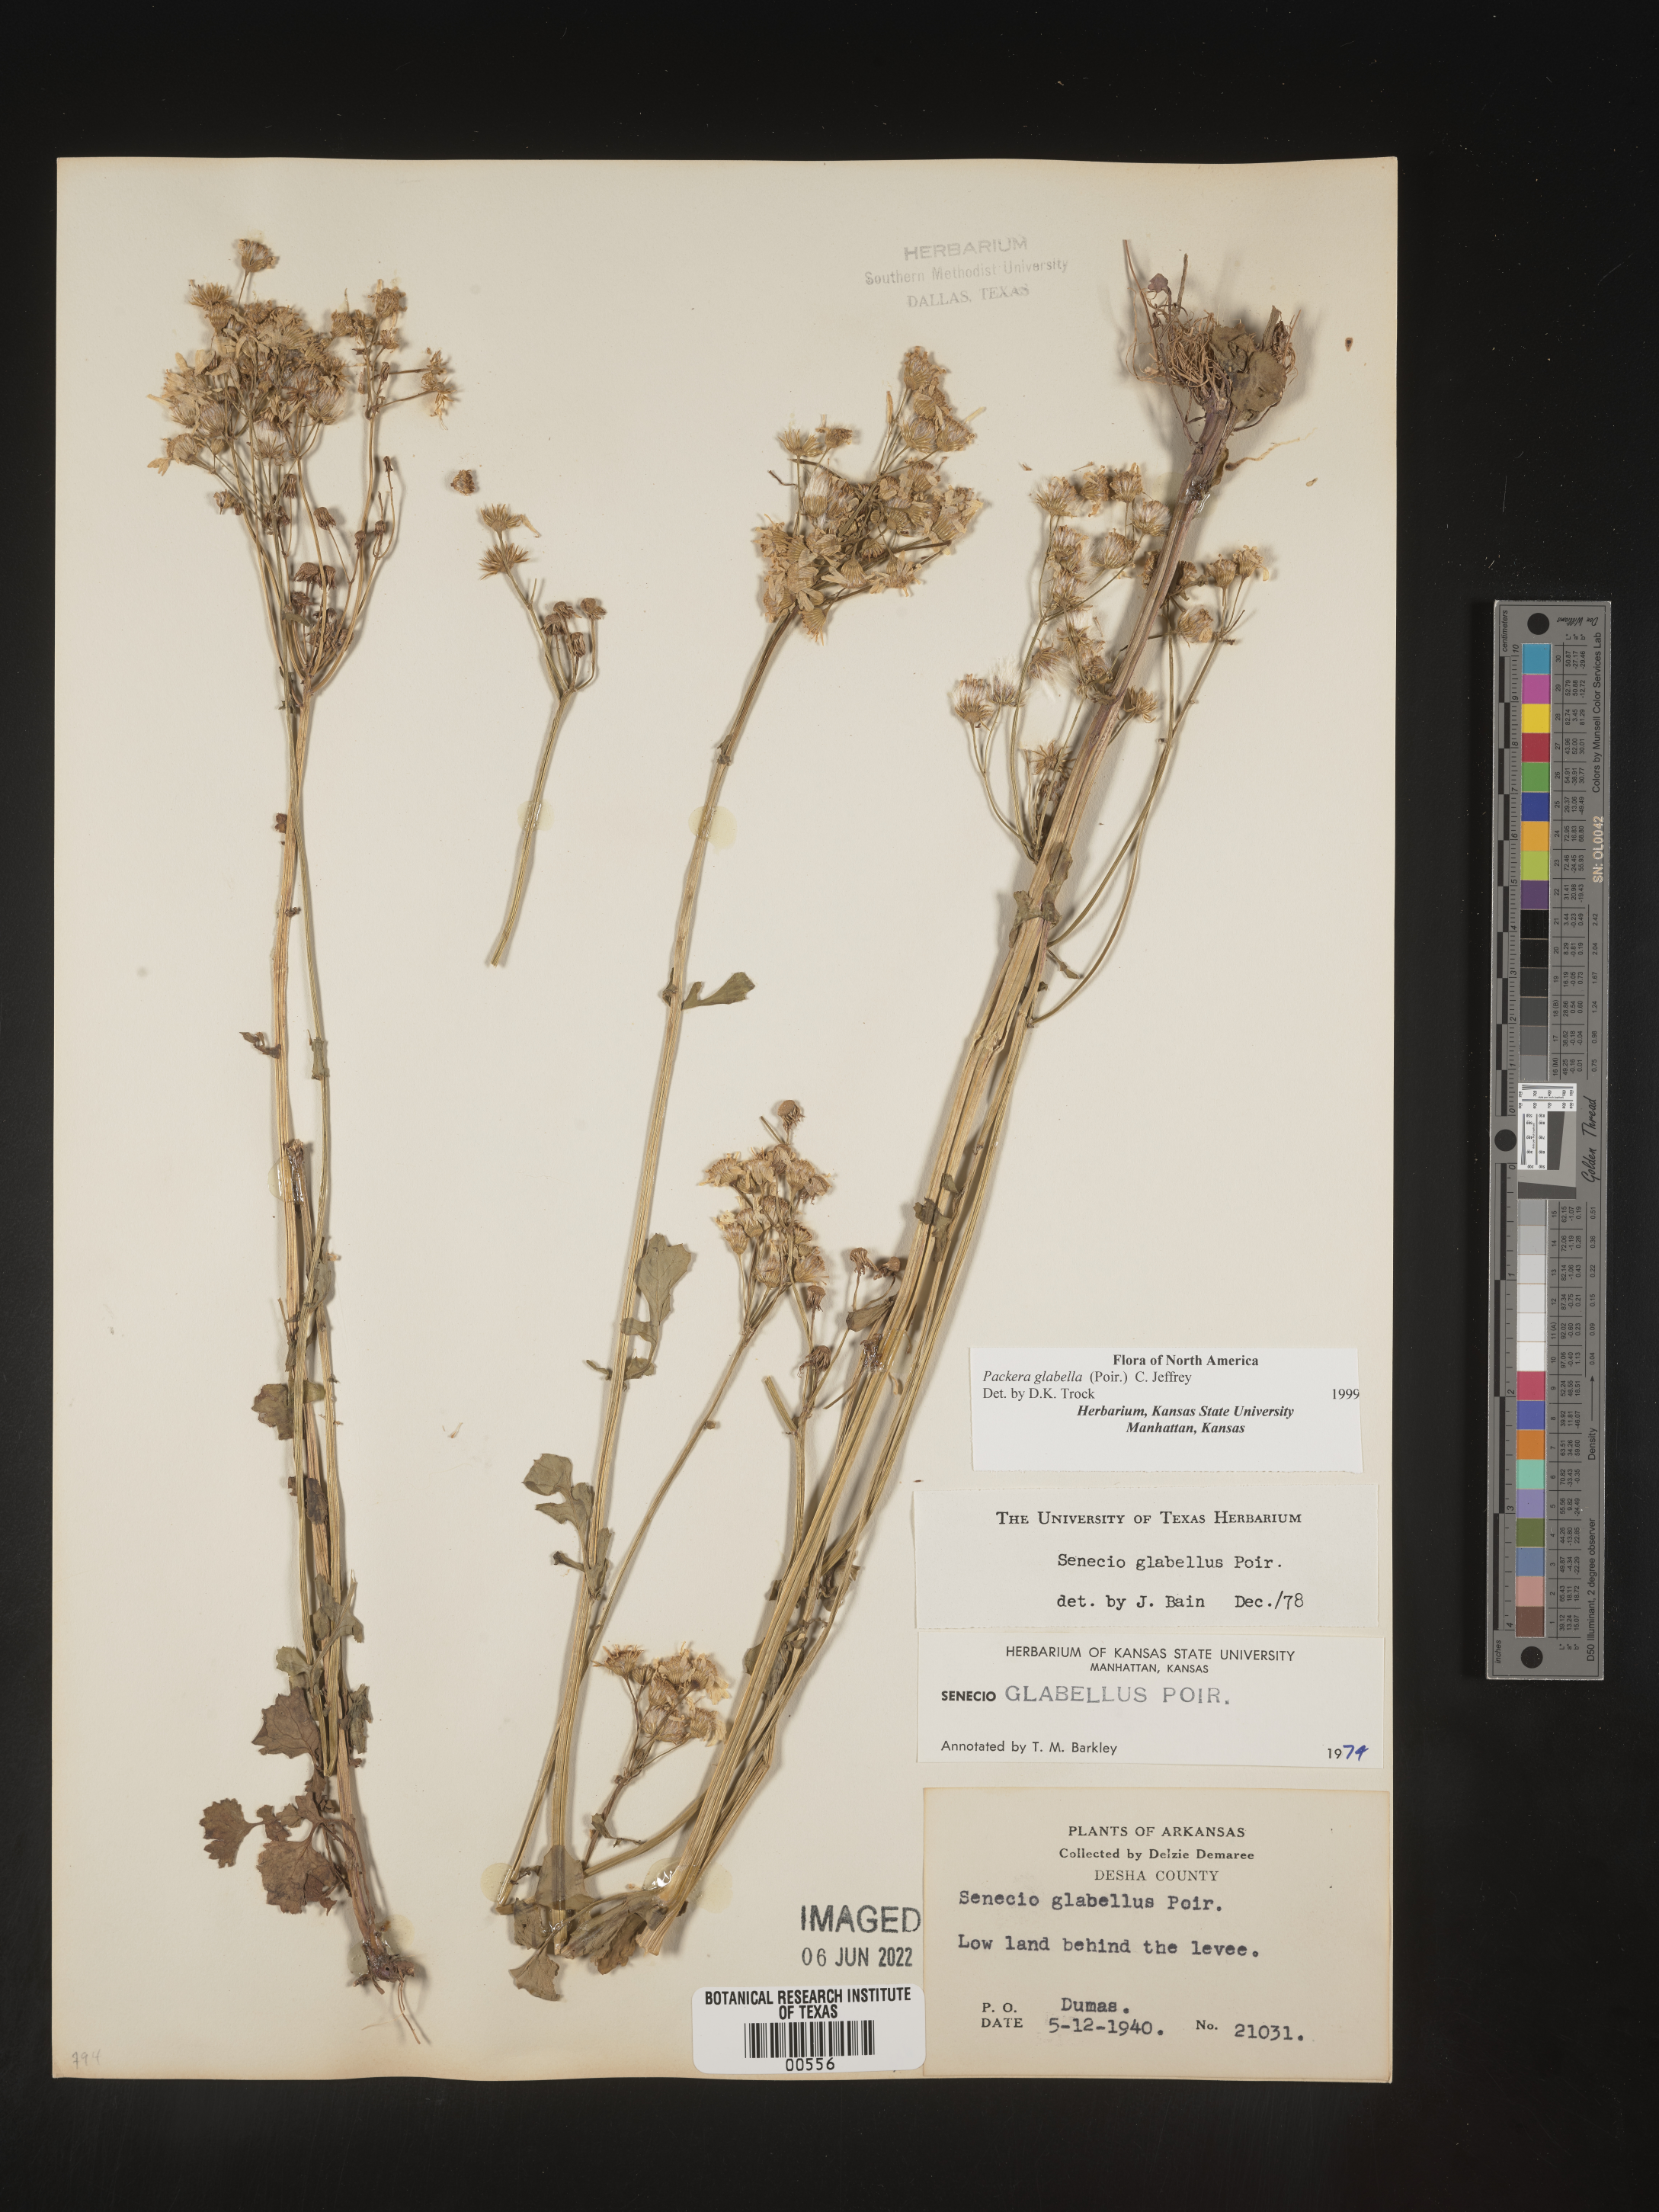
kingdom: Plantae
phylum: Tracheophyta
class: Magnoliopsida
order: Asterales
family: Asteraceae
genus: Packera
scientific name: Packera glabella
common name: Butterweed
